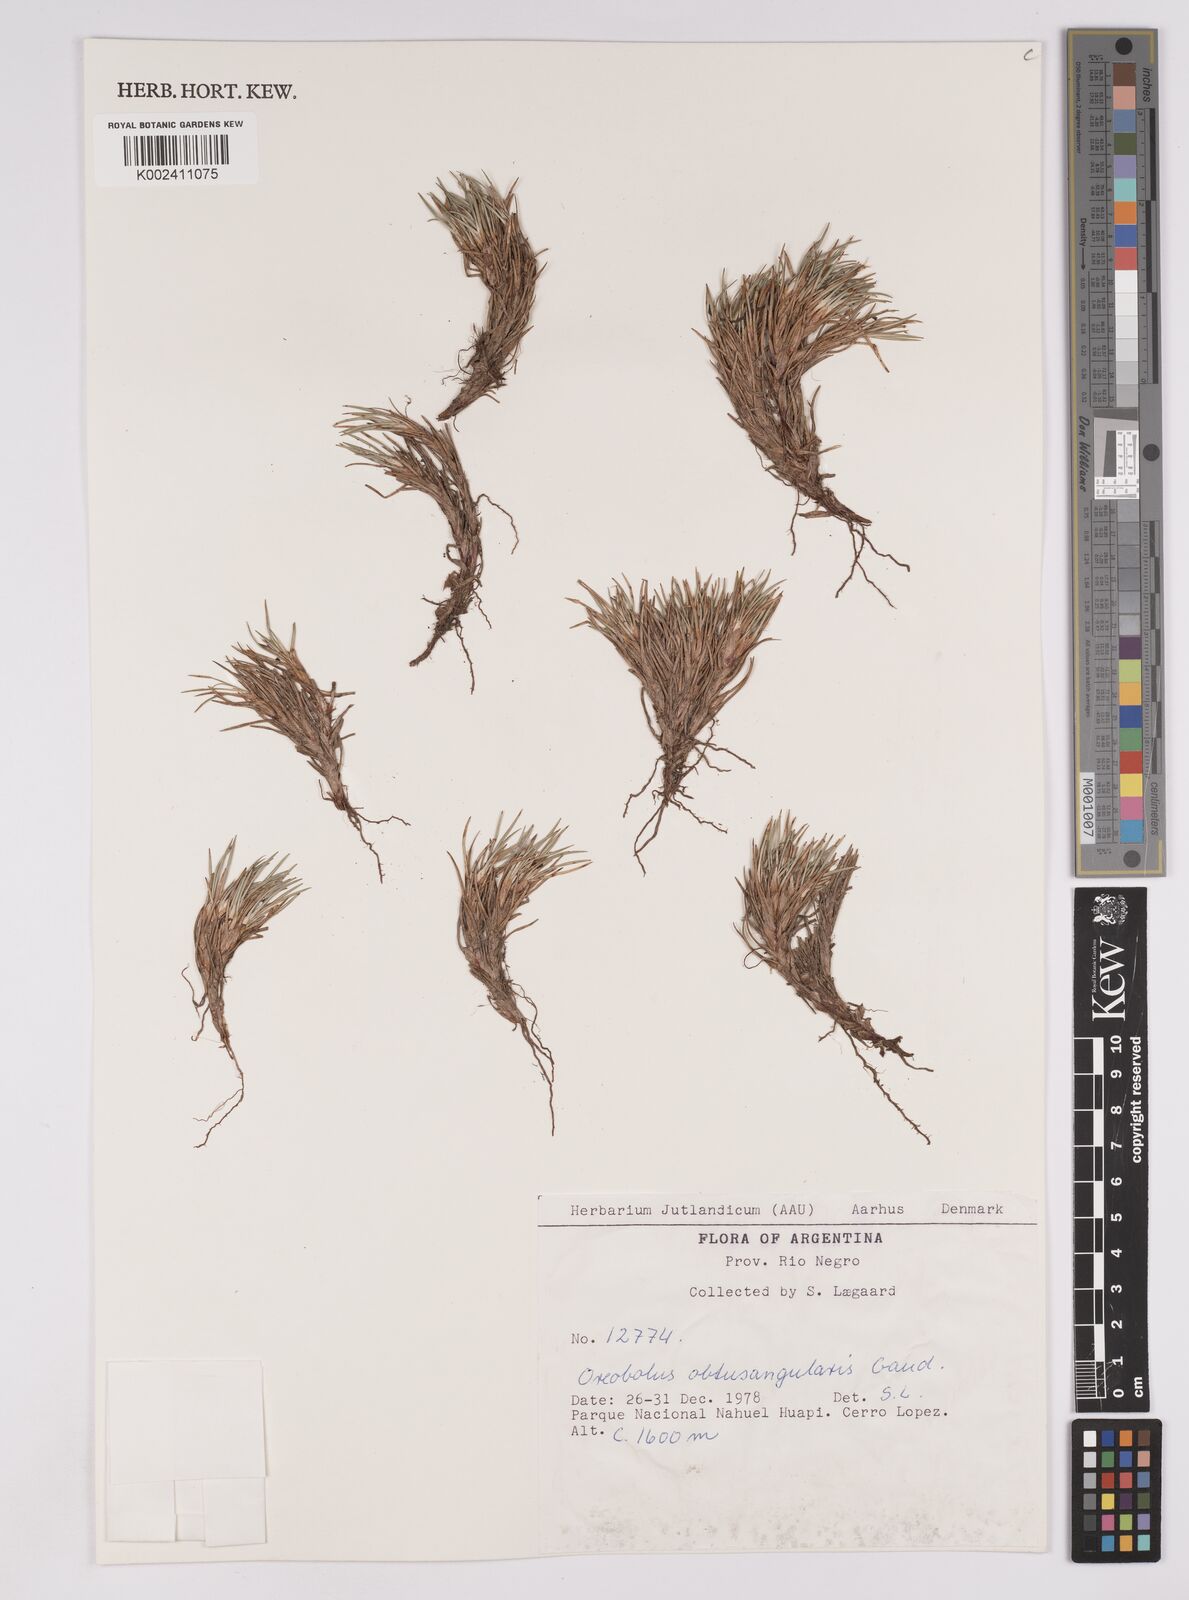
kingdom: Plantae
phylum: Tracheophyta
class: Liliopsida
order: Poales
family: Cyperaceae
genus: Oreobolus
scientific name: Oreobolus obtusangulus
